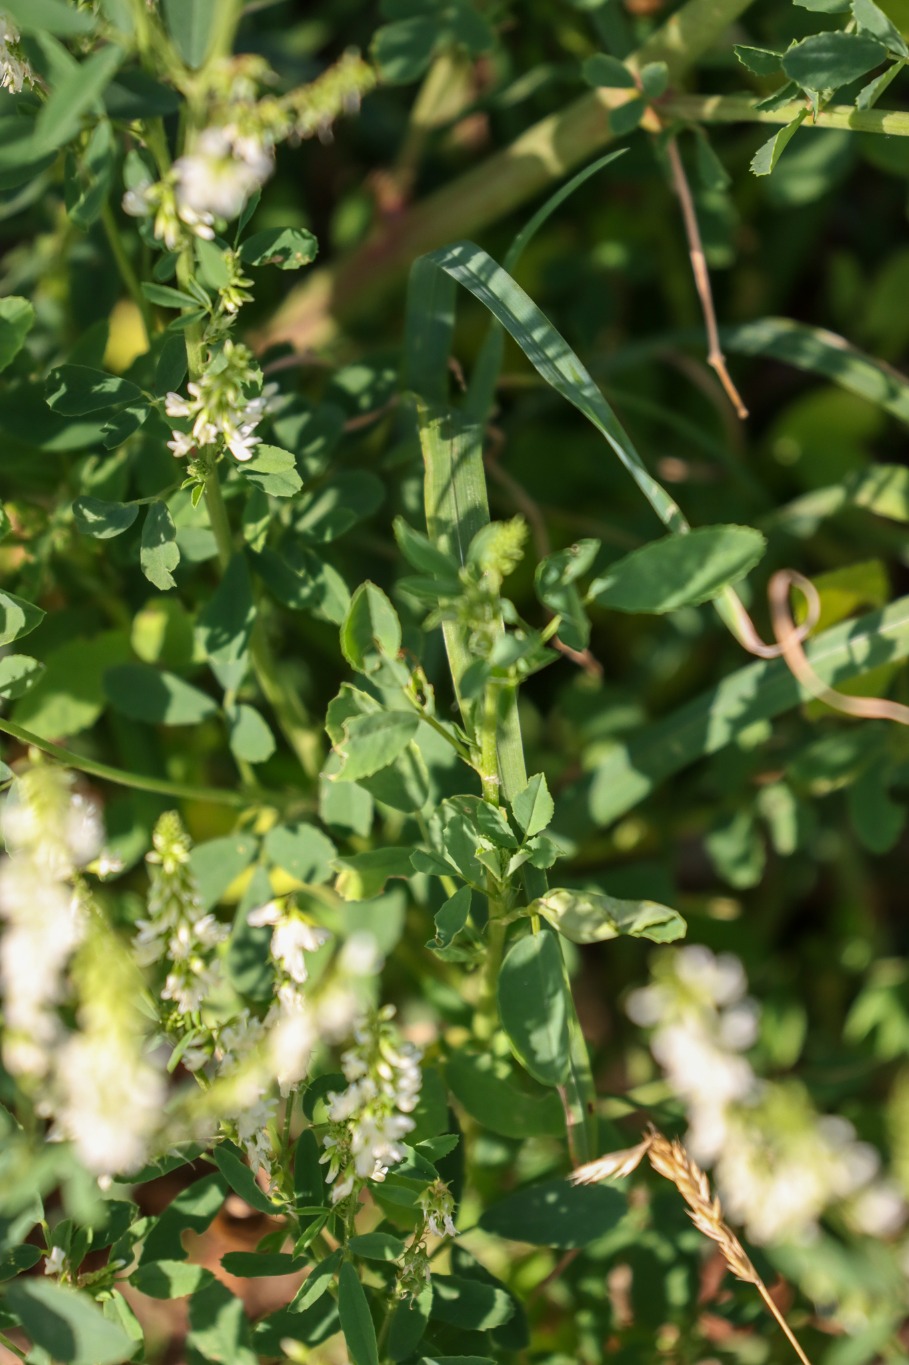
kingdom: Plantae
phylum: Tracheophyta
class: Magnoliopsida
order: Fabales
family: Fabaceae
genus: Melilotus
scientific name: Melilotus albus
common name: Hvid stenkløver
